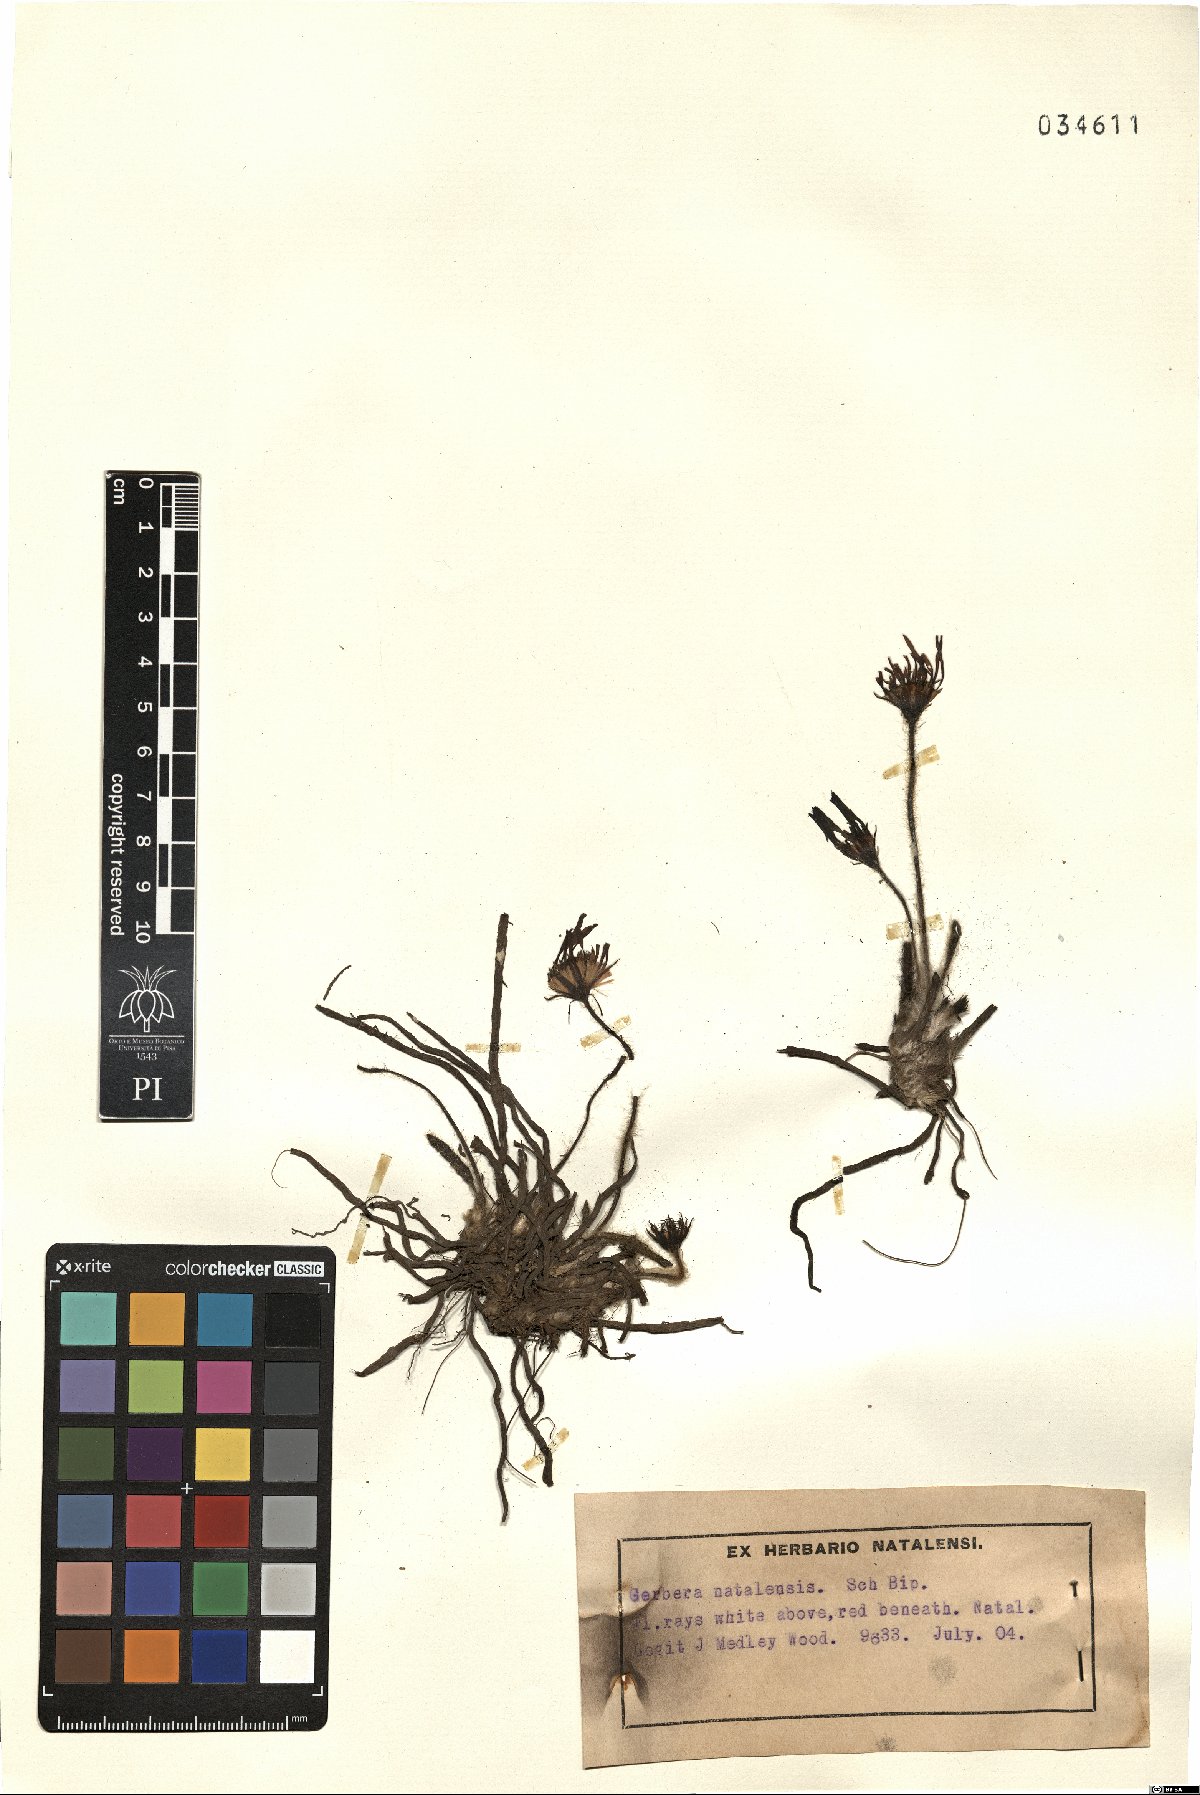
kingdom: Plantae
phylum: Tracheophyta
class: Magnoliopsida
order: Asterales
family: Asteraceae
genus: Gerbera
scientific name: Gerbera natalensis
